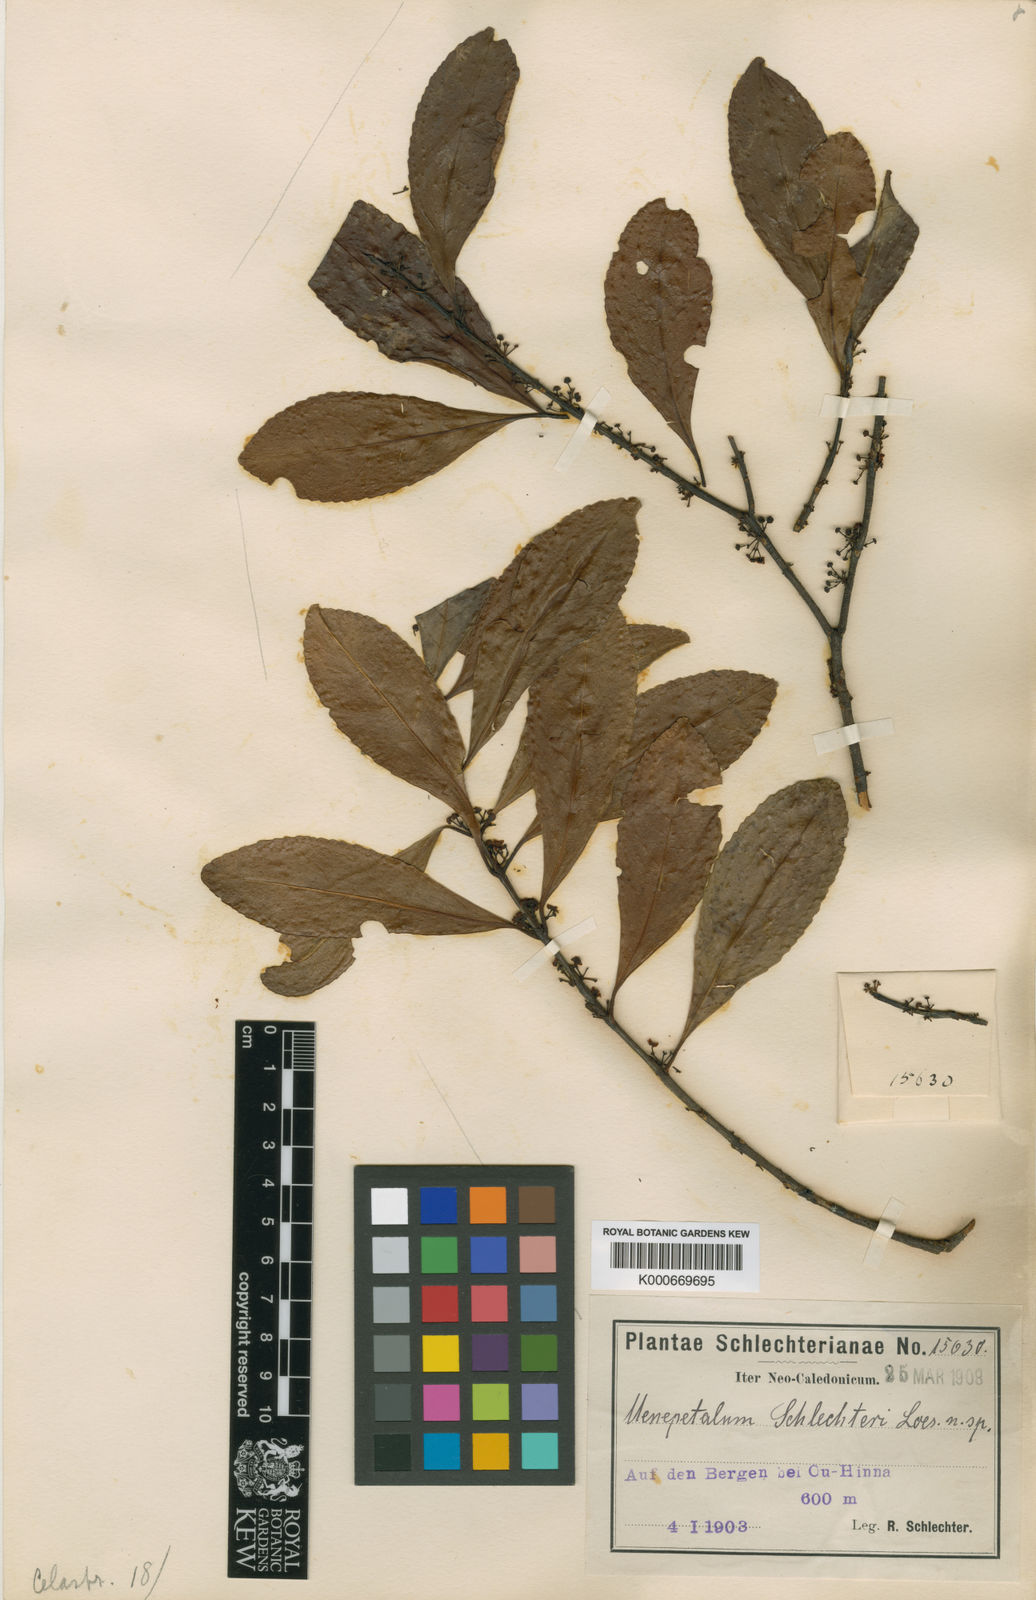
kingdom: Plantae
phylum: Tracheophyta
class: Magnoliopsida
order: Celastrales
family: Celastraceae
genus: Menepetalum
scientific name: Menepetalum schlechteri
